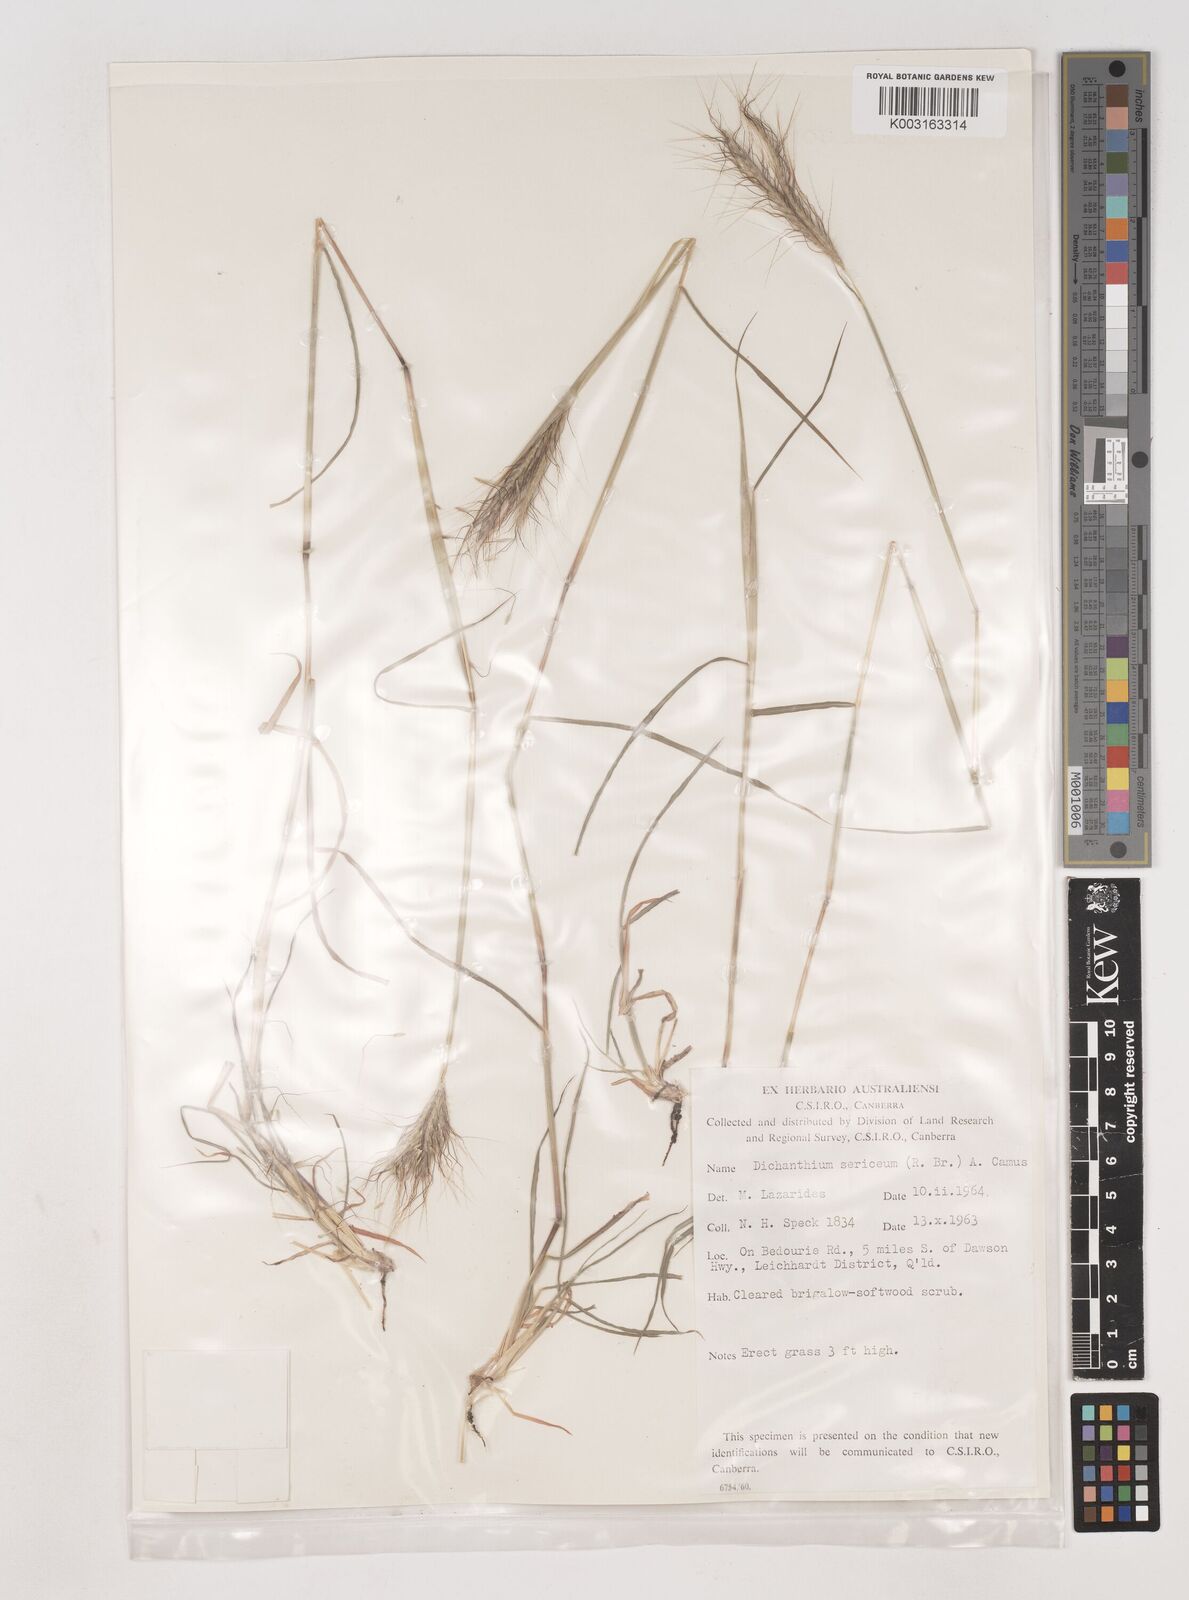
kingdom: Plantae
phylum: Tracheophyta
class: Liliopsida
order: Poales
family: Poaceae
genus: Dichanthium
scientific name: Dichanthium sericeum
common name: Silky bluestem
